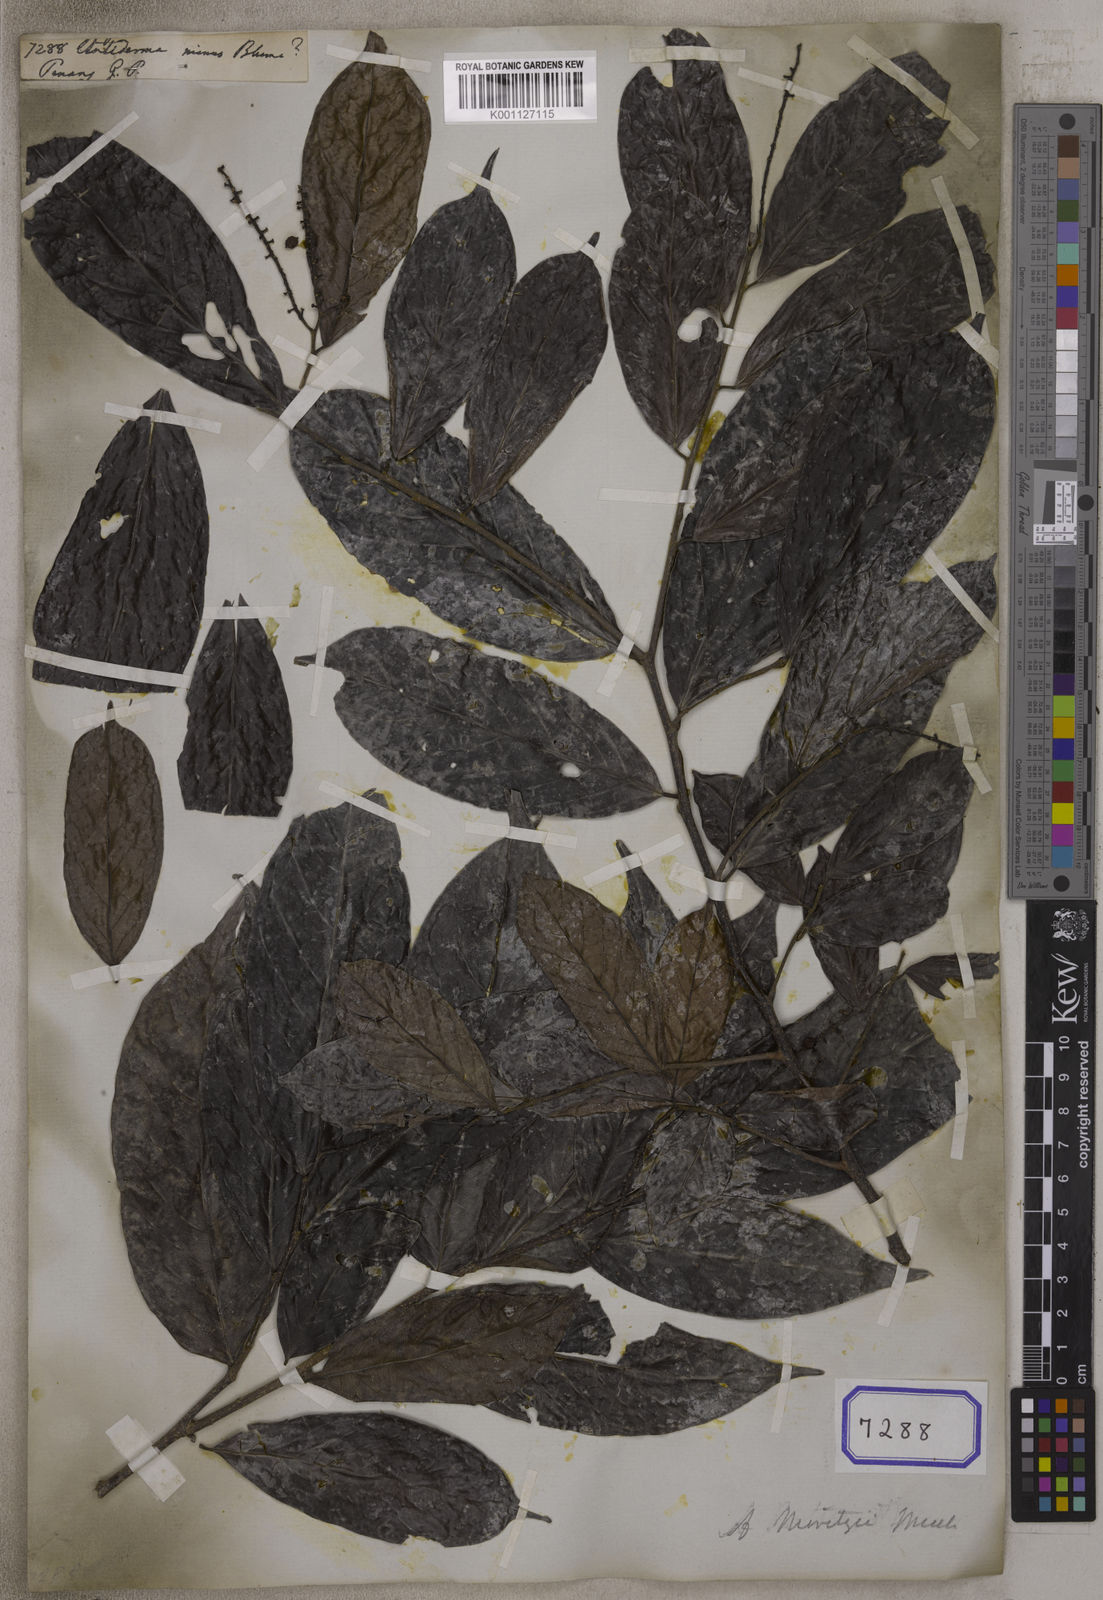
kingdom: Plantae
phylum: Tracheophyta
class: Magnoliopsida
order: Malpighiales
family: Phyllanthaceae
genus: Antidesma
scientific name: Antidesma coriaceum
